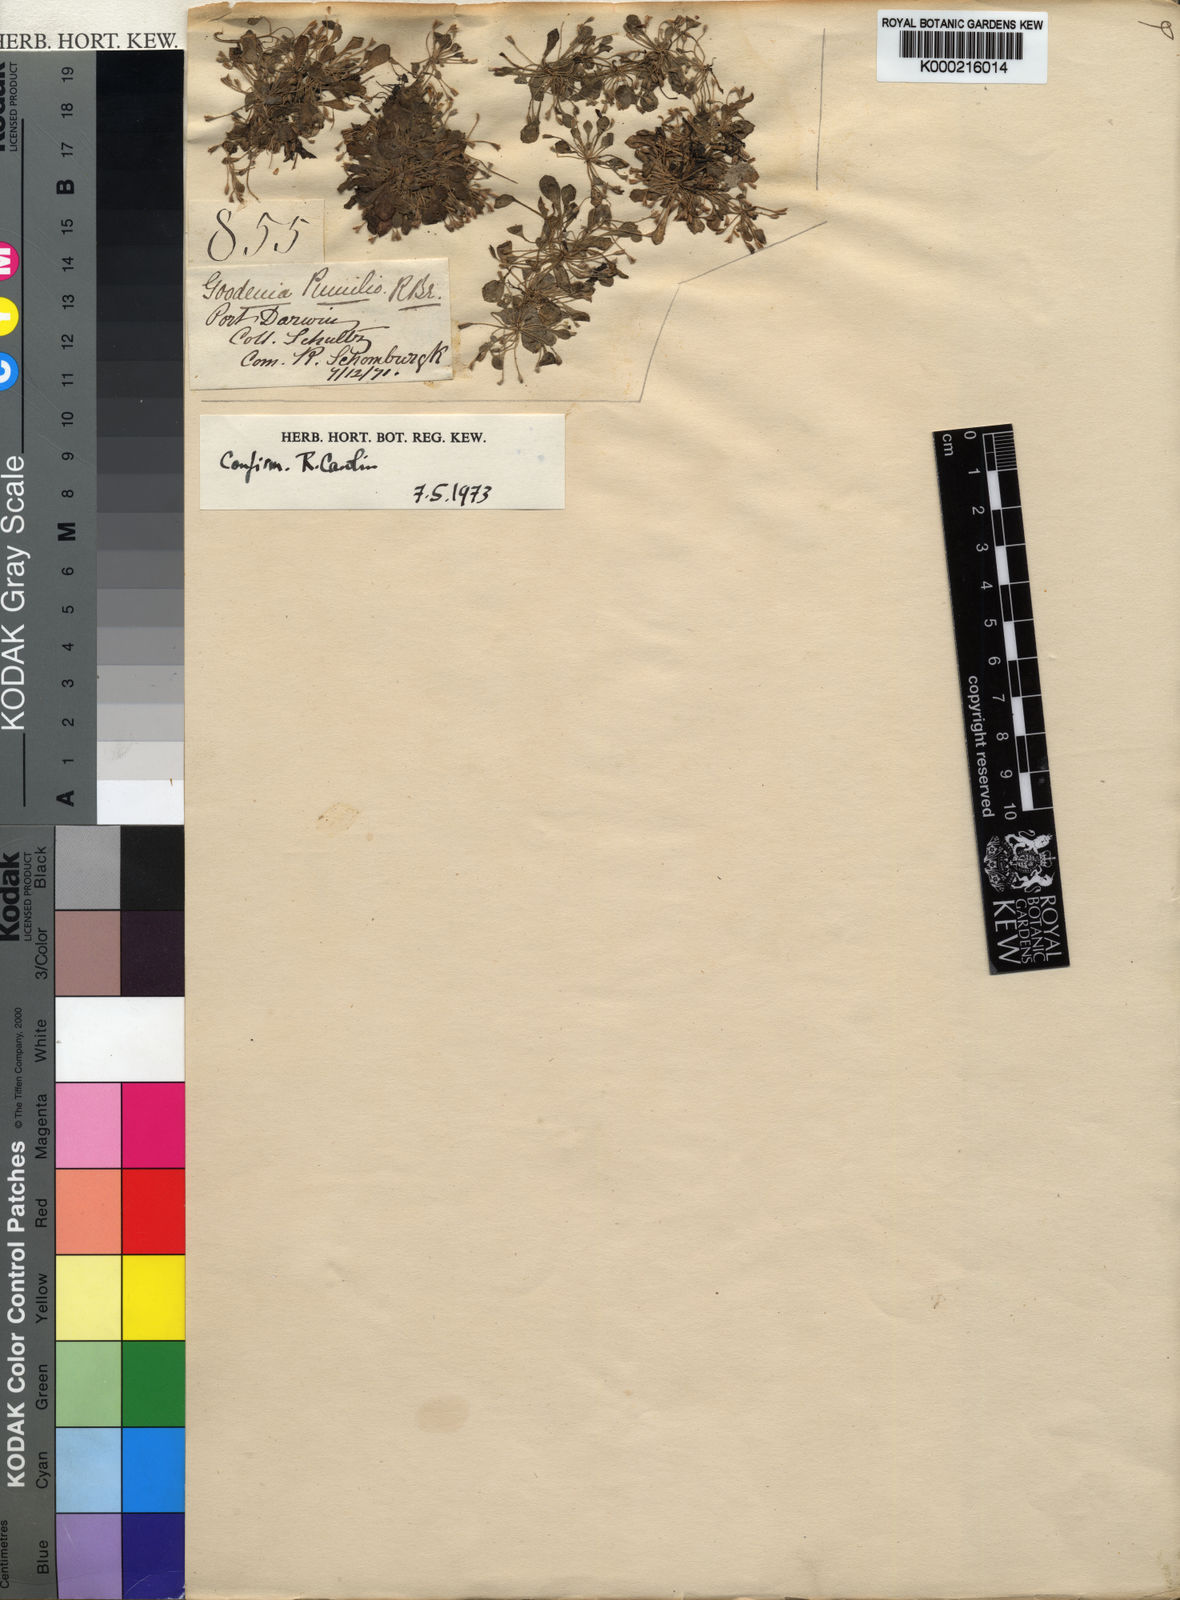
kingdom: Plantae
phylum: Tracheophyta
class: Magnoliopsida
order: Asterales
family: Goodeniaceae
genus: Goodenia
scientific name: Goodenia humilis
